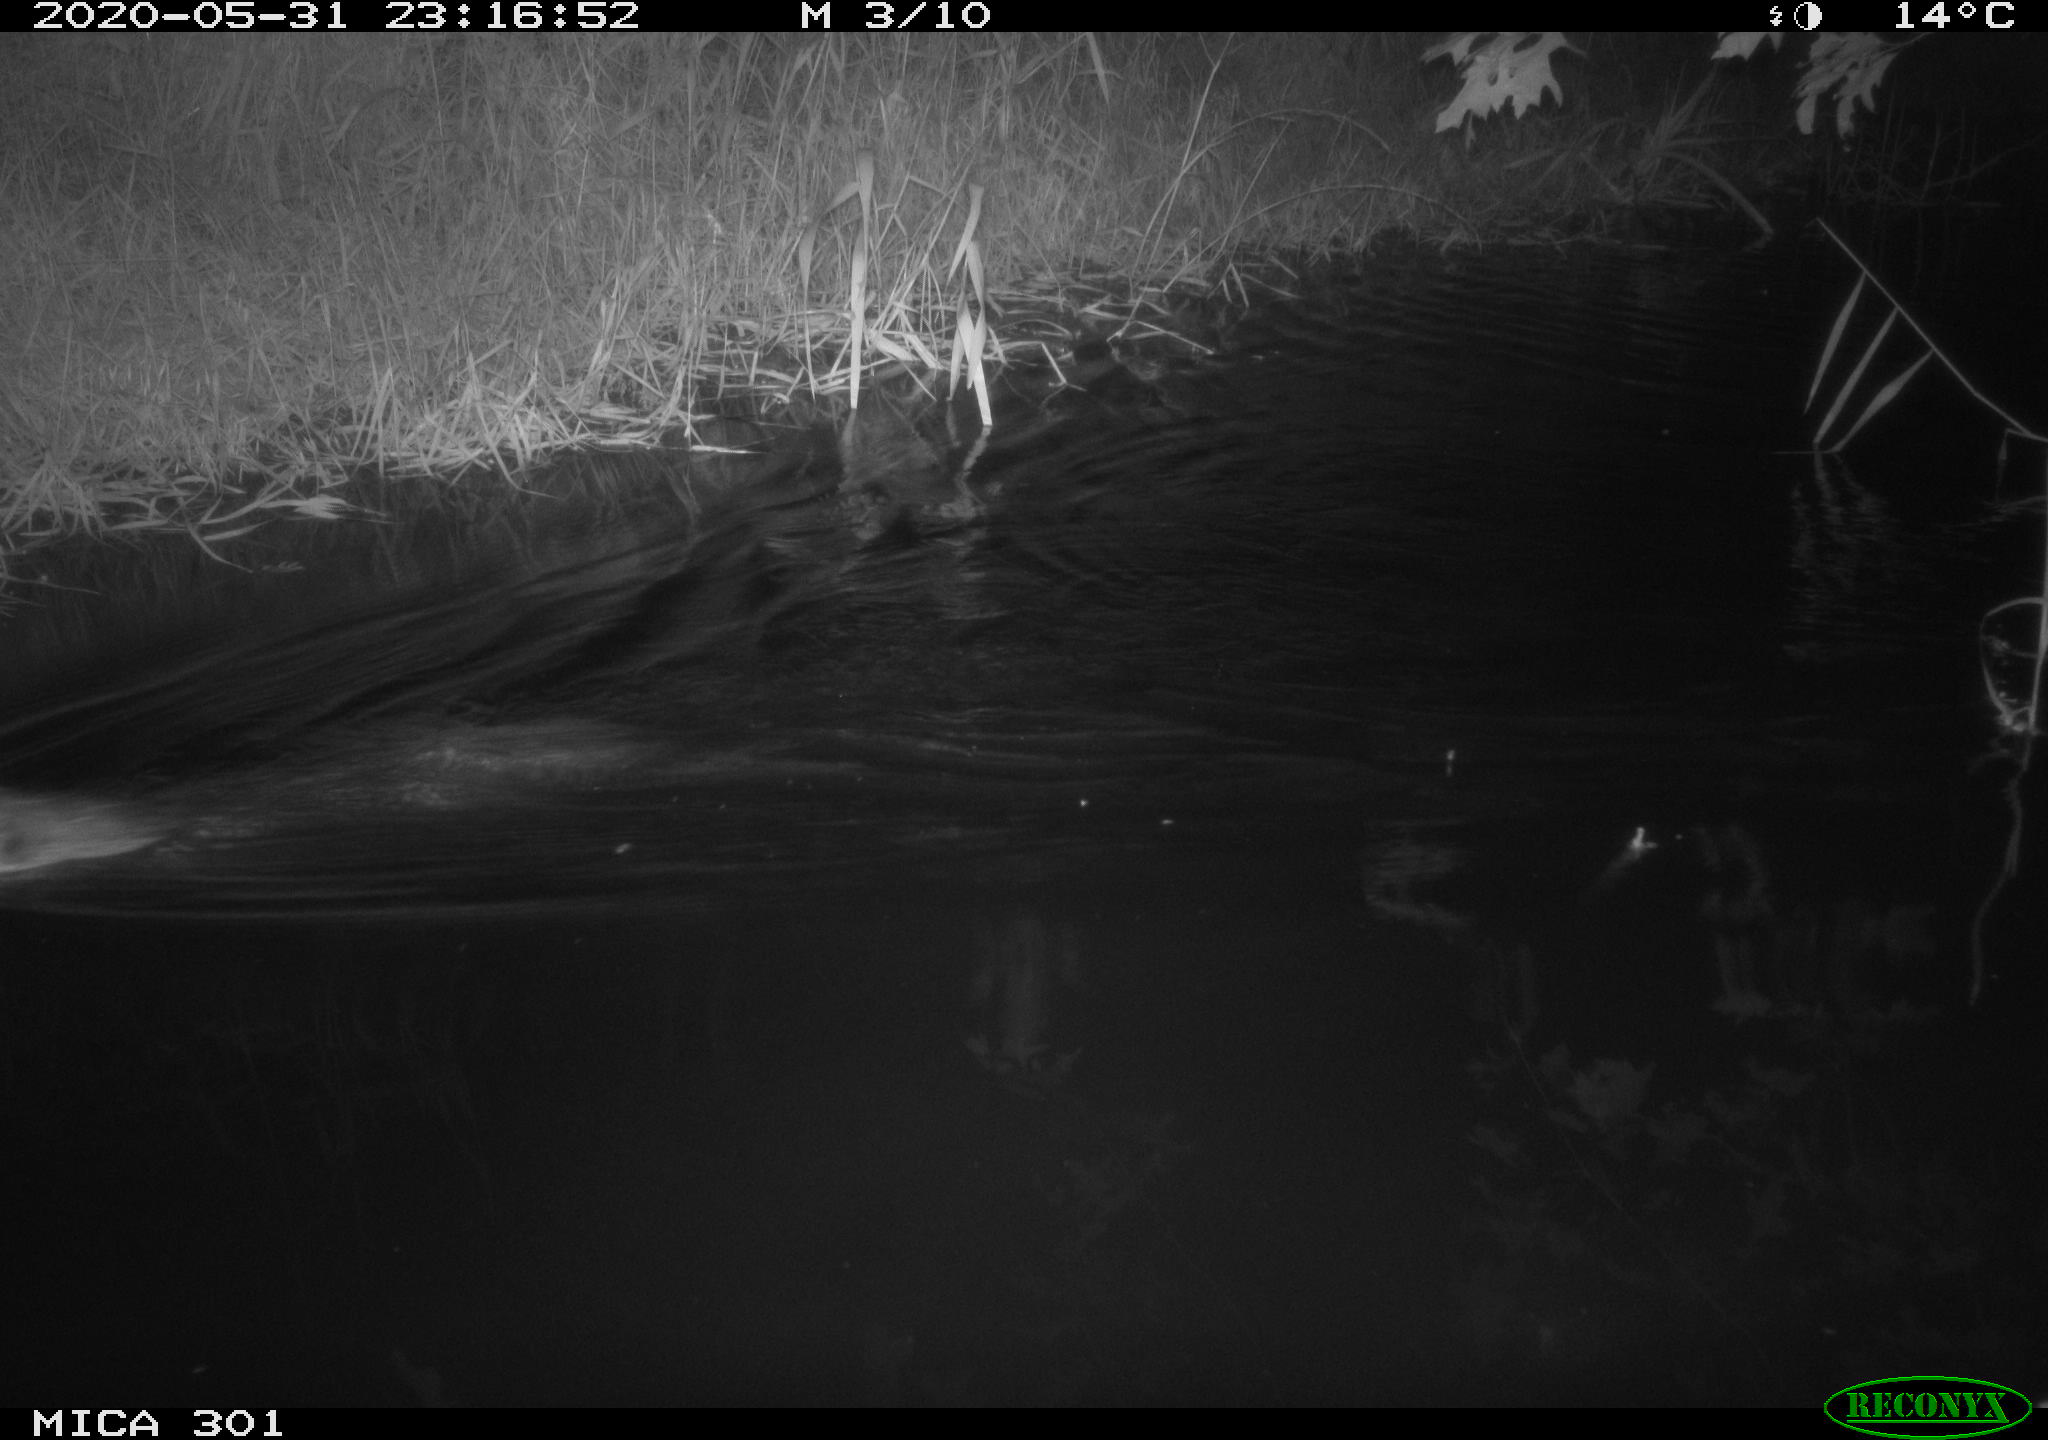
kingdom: Animalia
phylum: Chordata
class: Mammalia
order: Rodentia
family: Castoridae
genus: Castor
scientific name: Castor fiber
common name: Eurasian beaver
